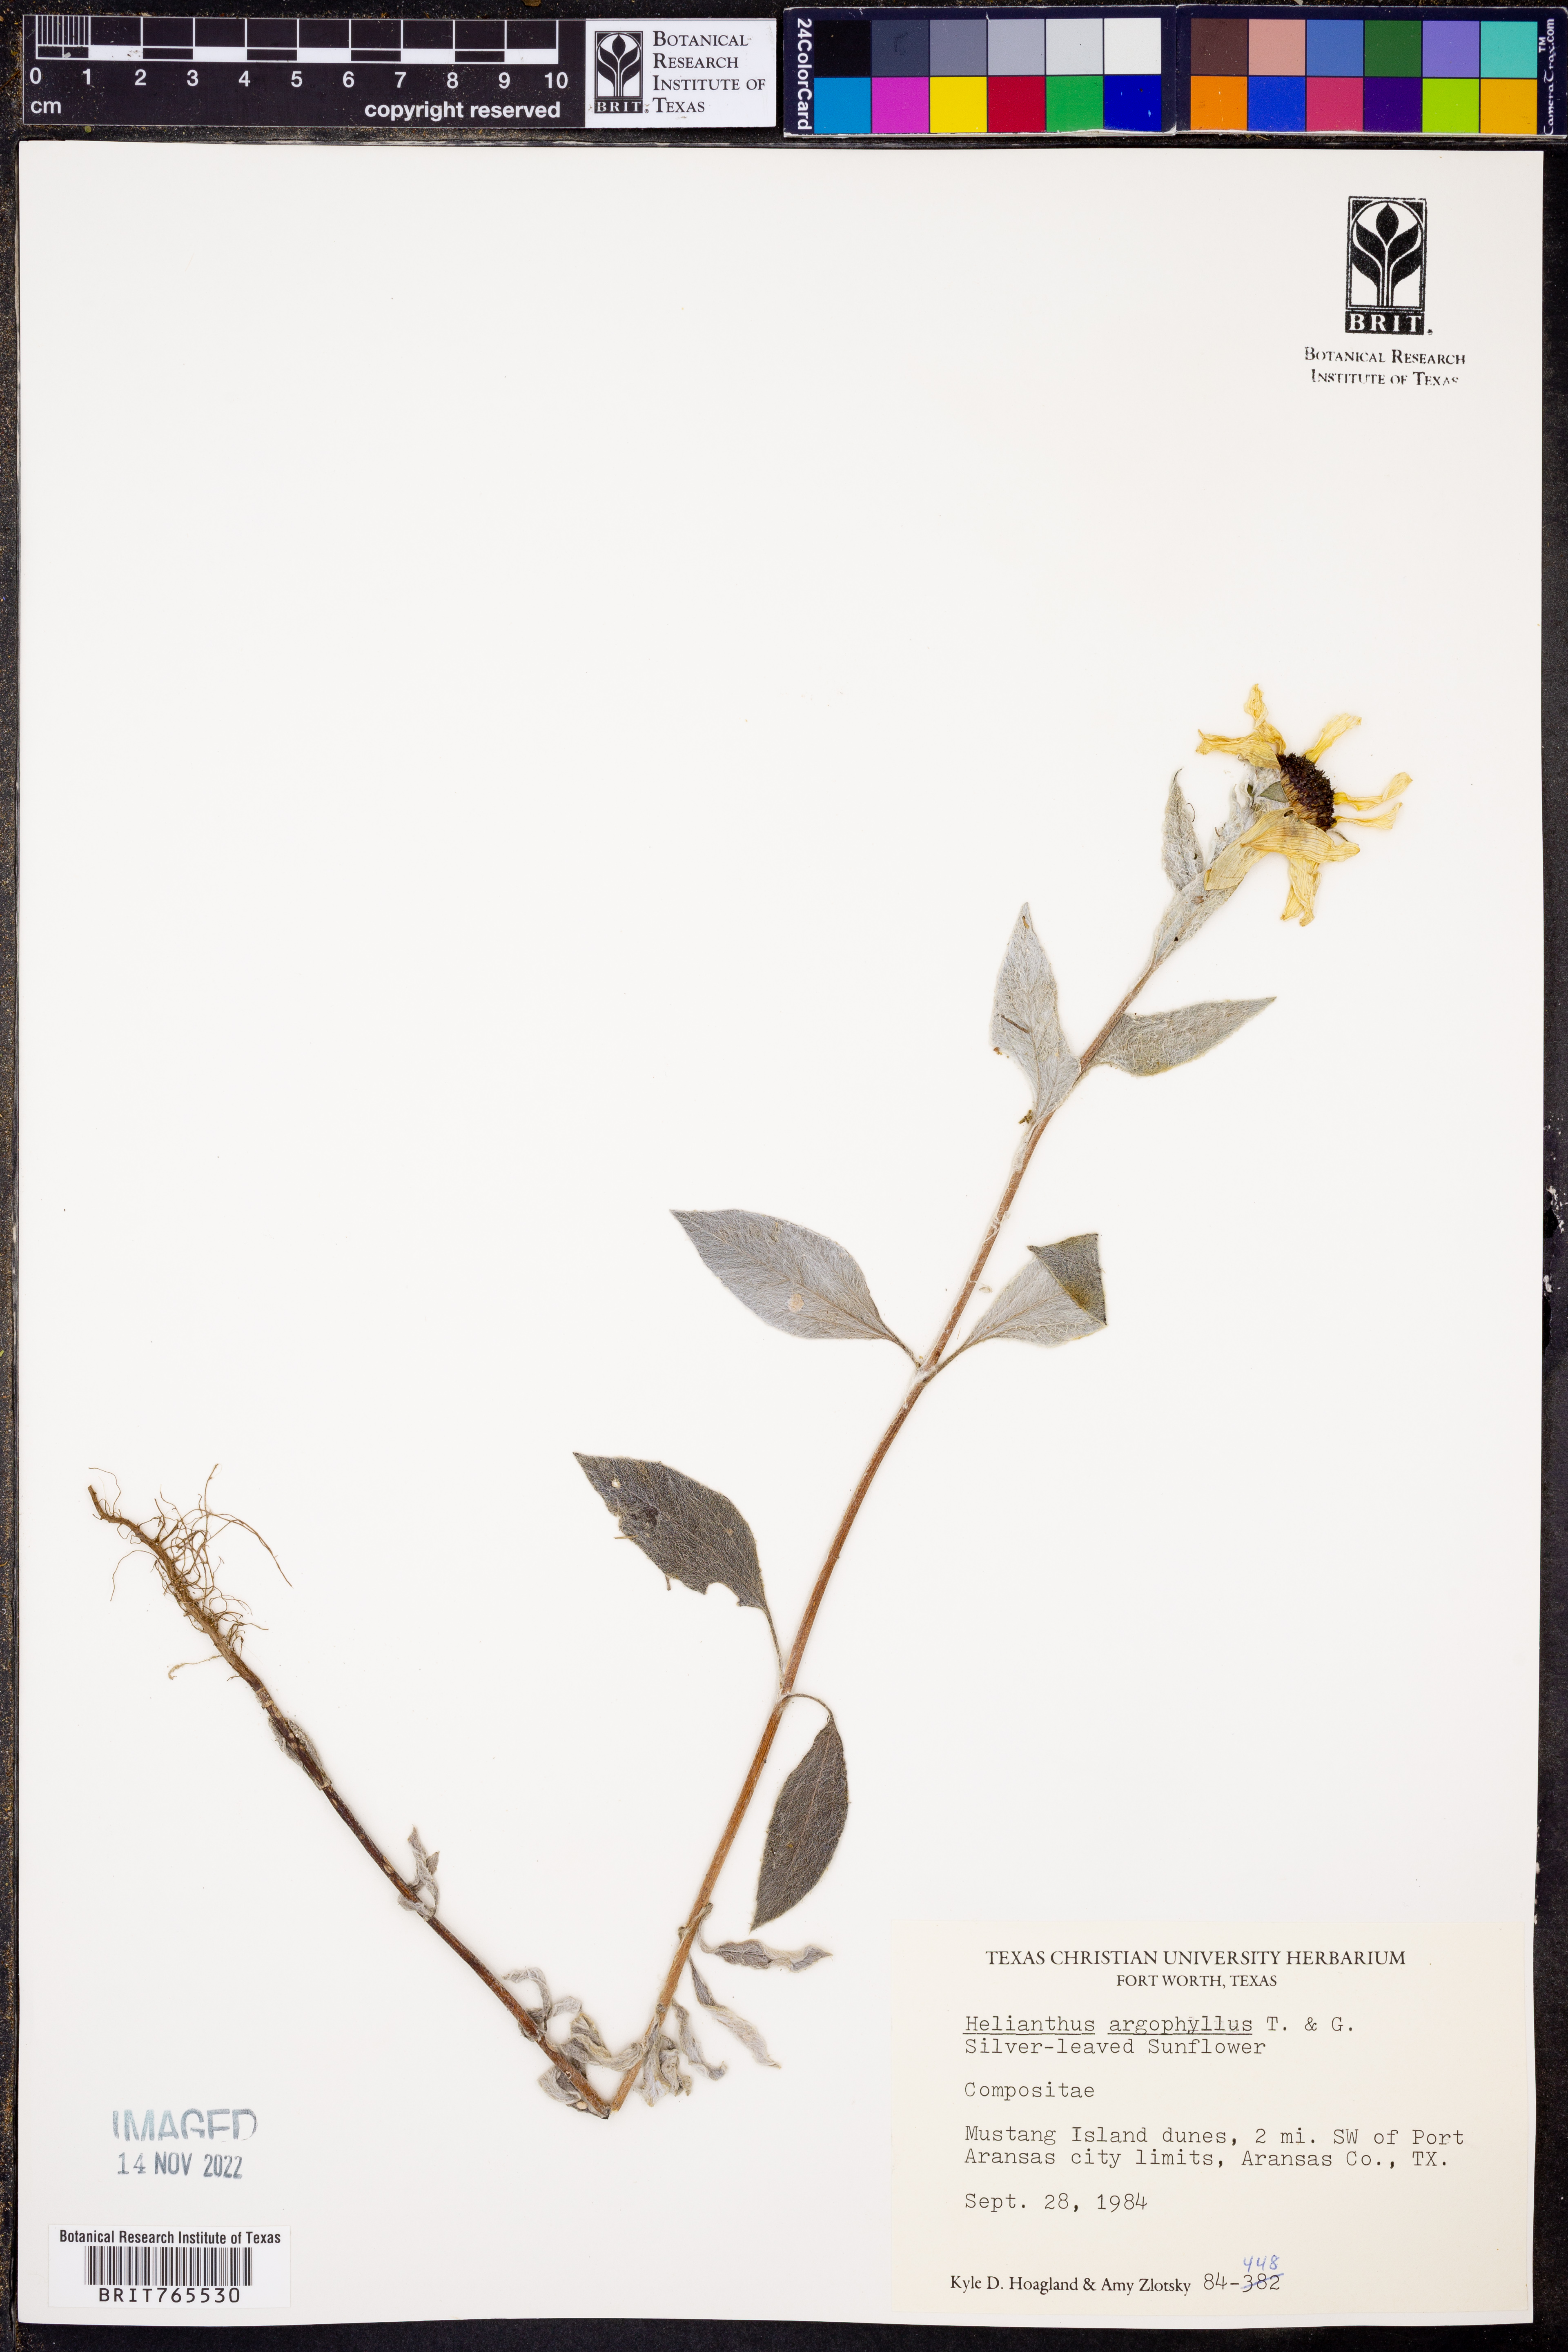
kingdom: Plantae
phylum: Tracheophyta
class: Magnoliopsida
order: Asterales
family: Asteraceae
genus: Helianthus
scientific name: Helianthus argophyllus
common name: Silverleaf sunflower
